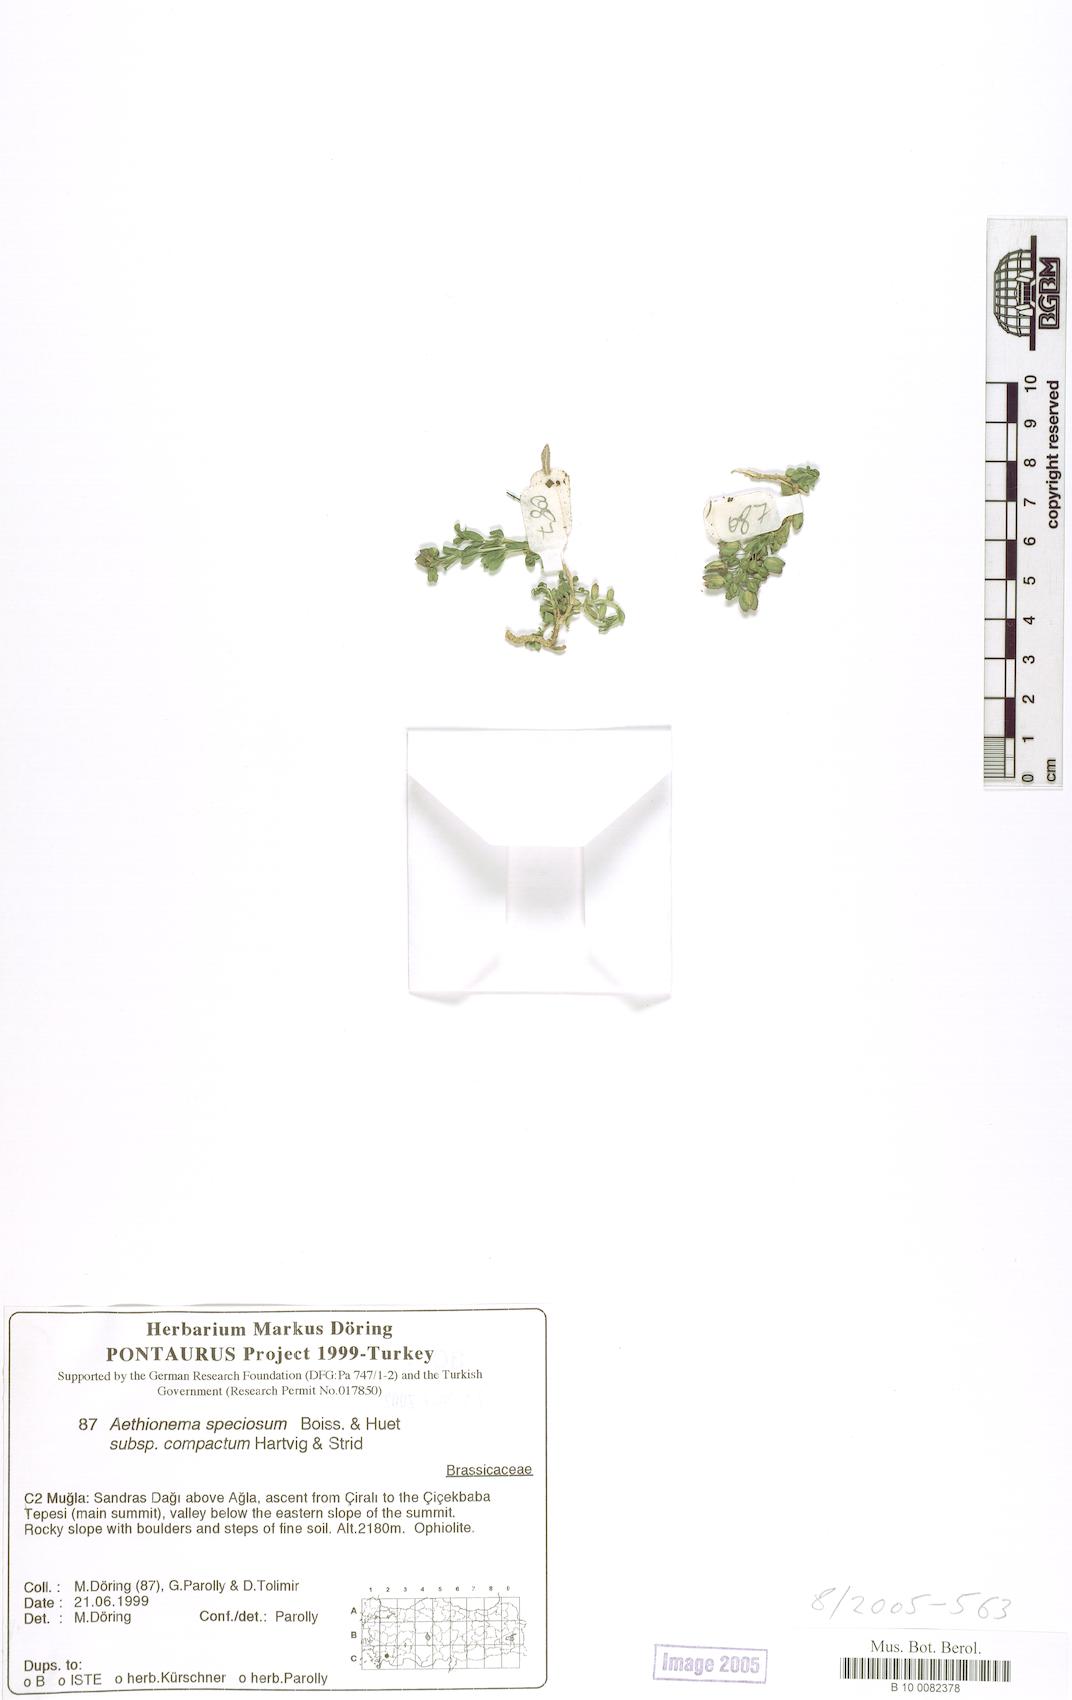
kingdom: Plantae
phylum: Tracheophyta
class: Magnoliopsida
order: Brassicales
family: Brassicaceae
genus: Aethionema
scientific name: Aethionema compactum
